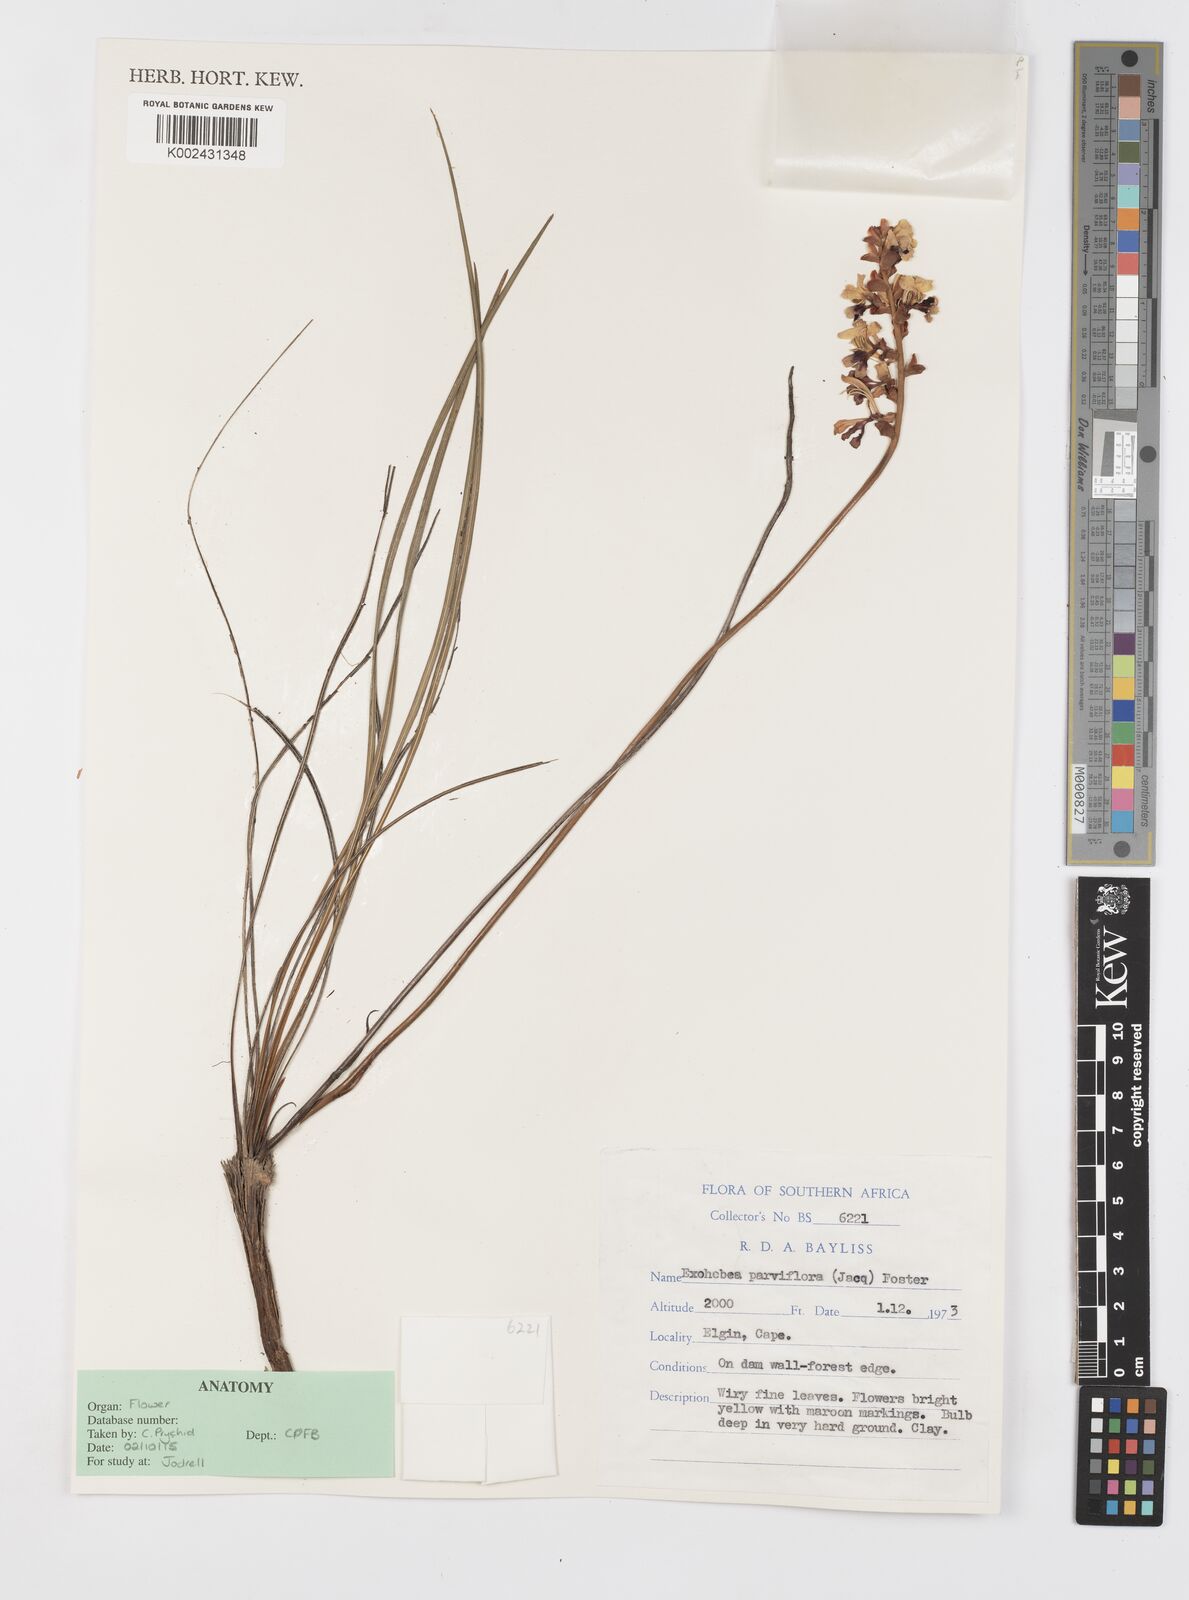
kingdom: Plantae
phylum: Tracheophyta
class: Liliopsida
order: Asparagales
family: Iridaceae
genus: Tritoniopsis
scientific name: Tritoniopsis parviflora
